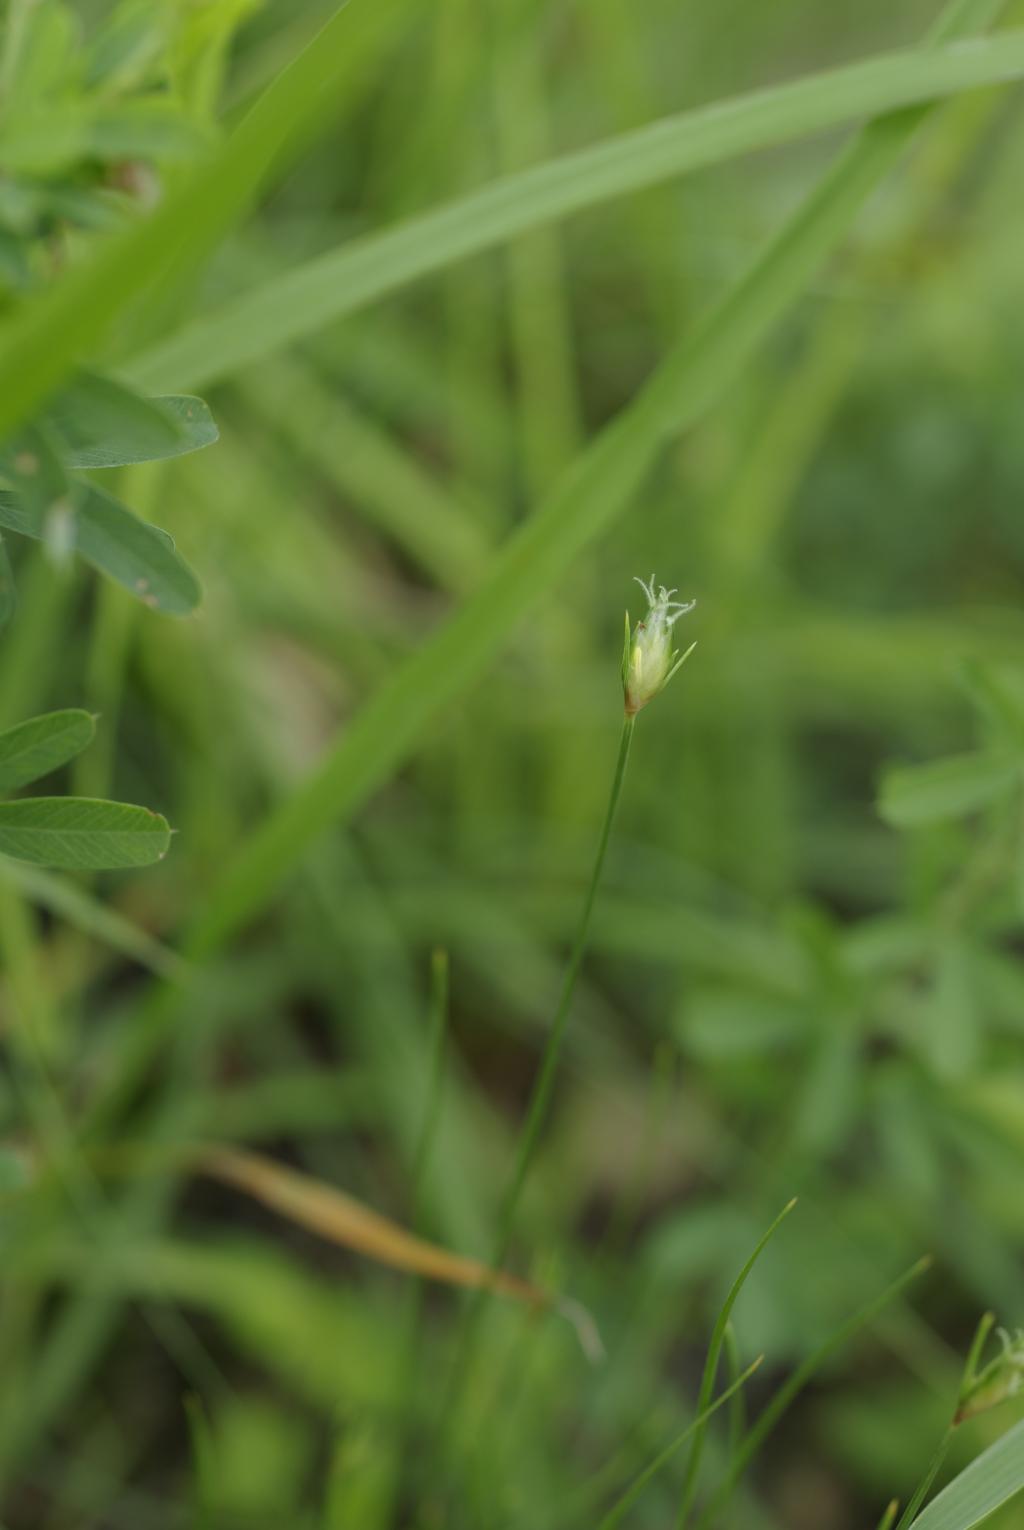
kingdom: Plantae
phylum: Tracheophyta
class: Liliopsida
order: Poales
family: Cyperaceae
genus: Abildgaardia
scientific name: Abildgaardia ovata
